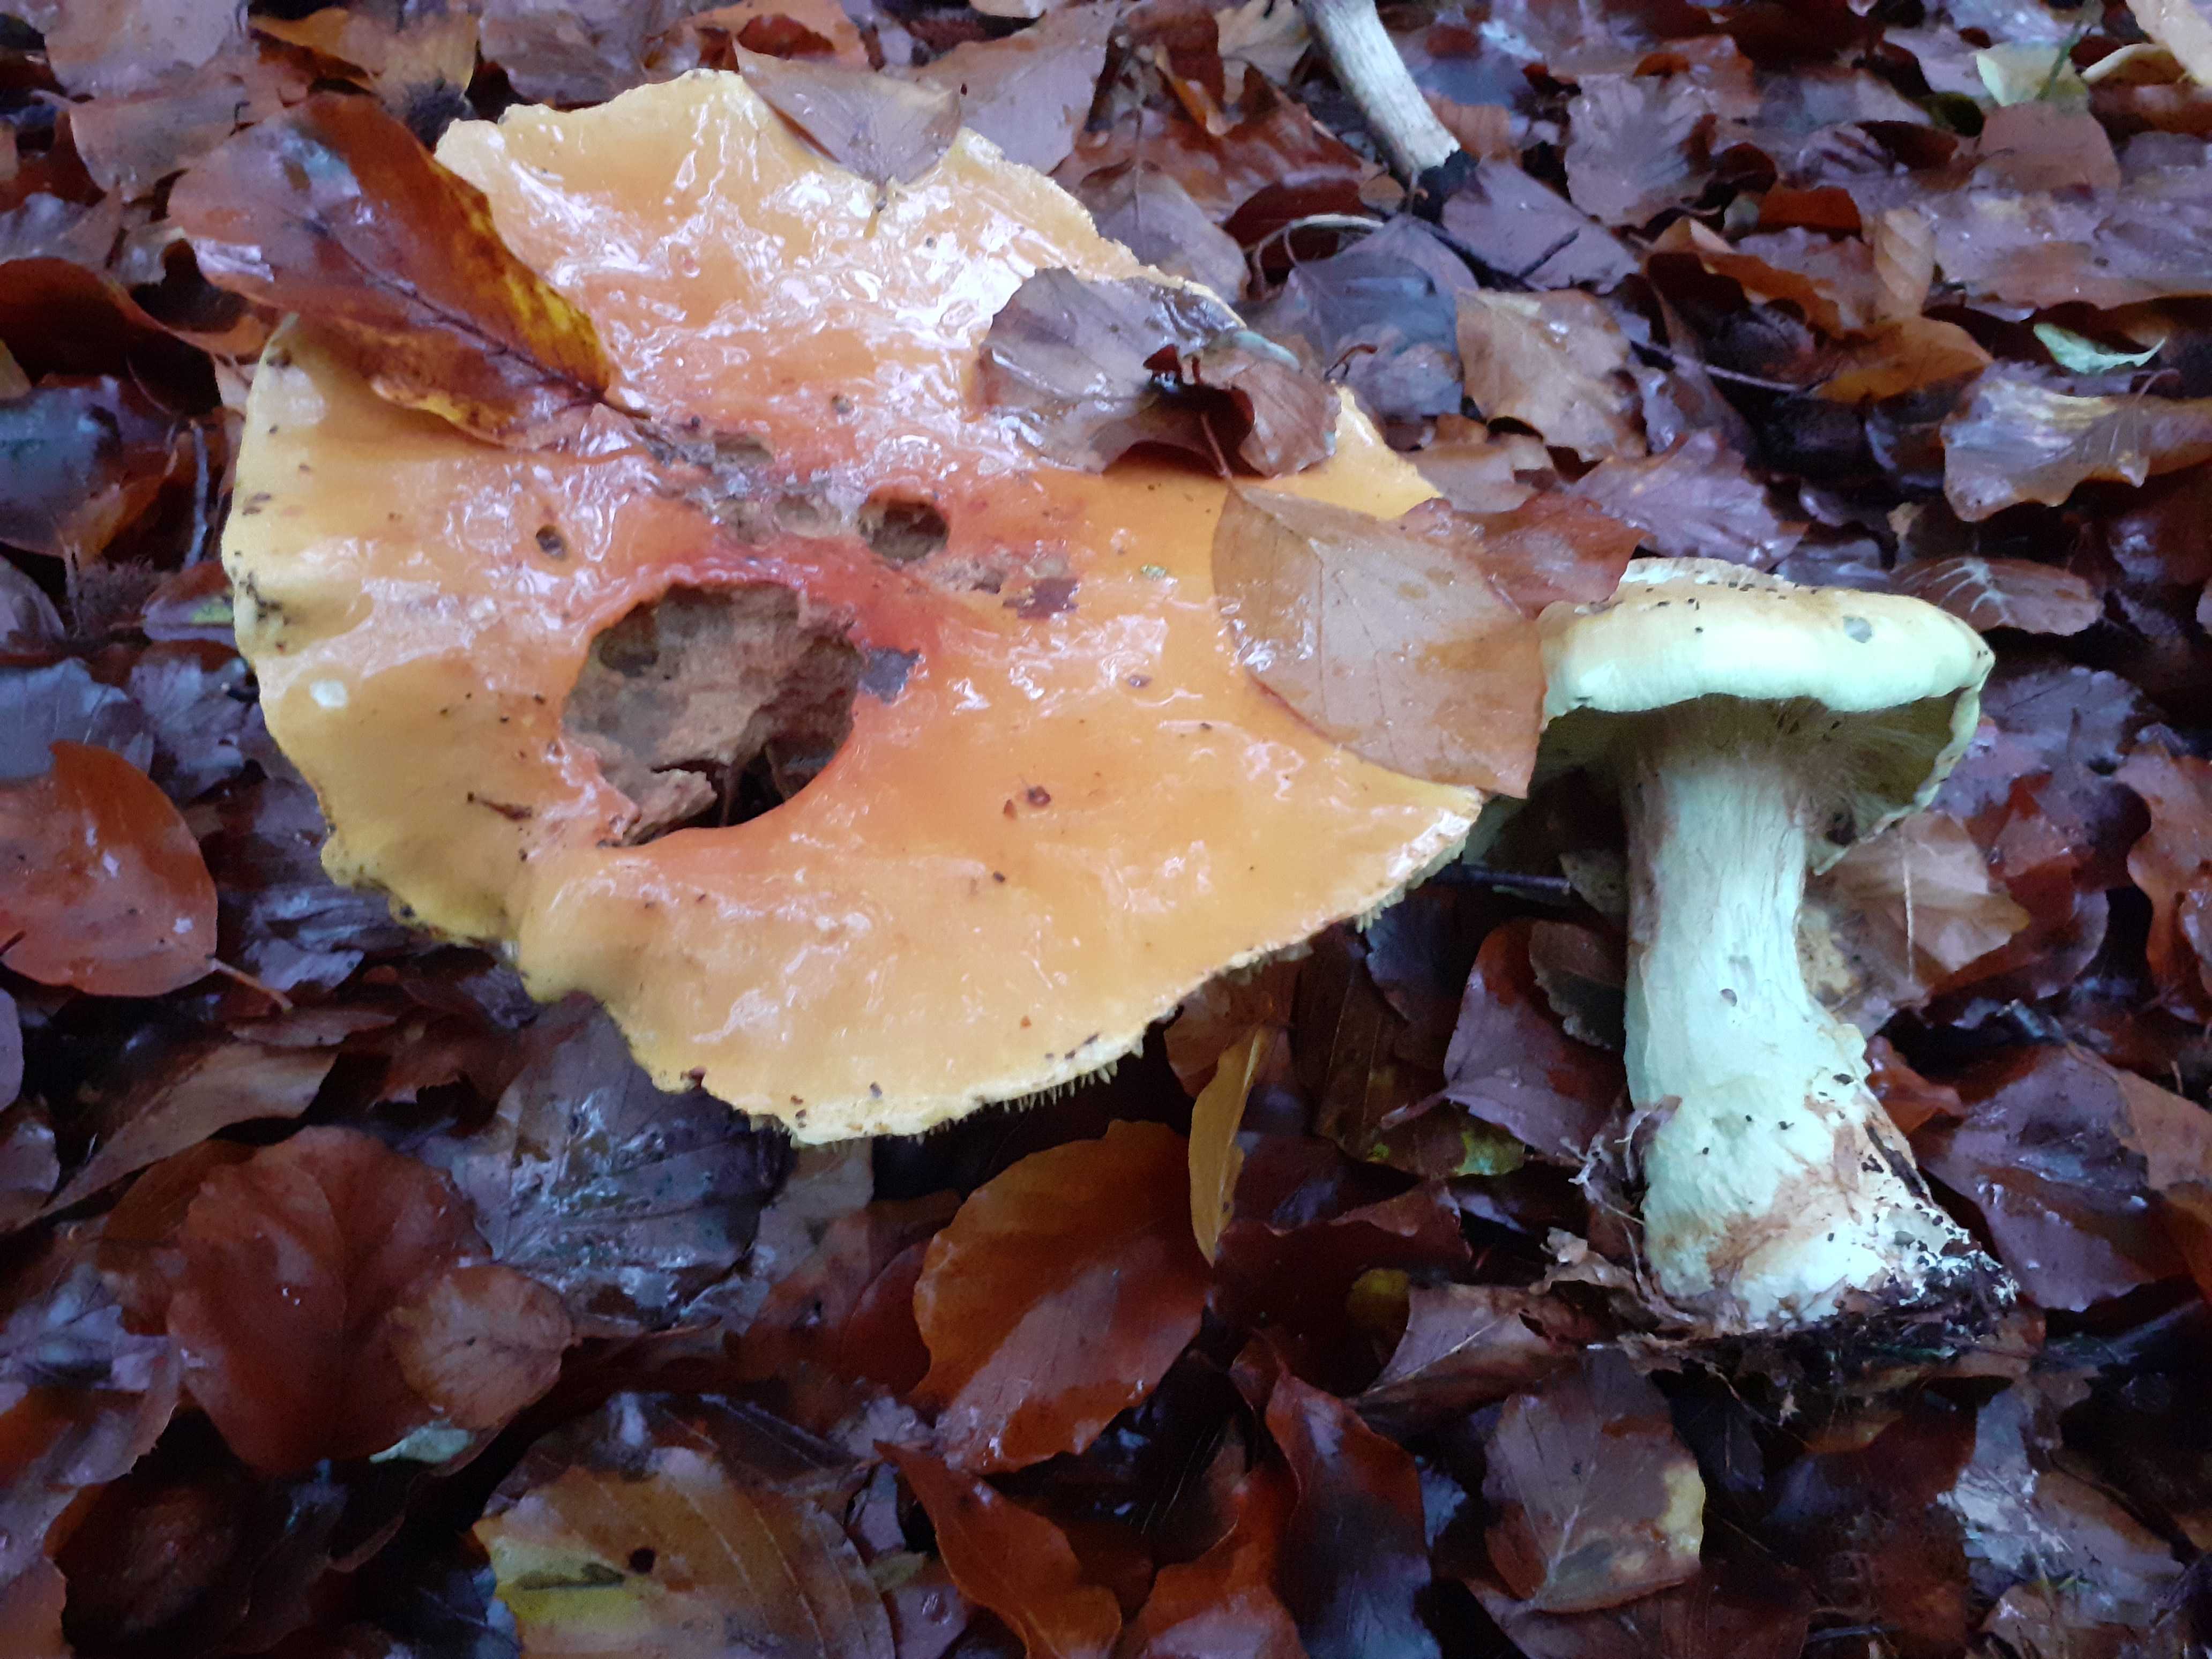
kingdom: Fungi
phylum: Basidiomycota
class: Agaricomycetes
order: Agaricales
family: Cortinariaceae
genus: Calonarius
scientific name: Calonarius elegantissimus
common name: orangegylden slørhat
